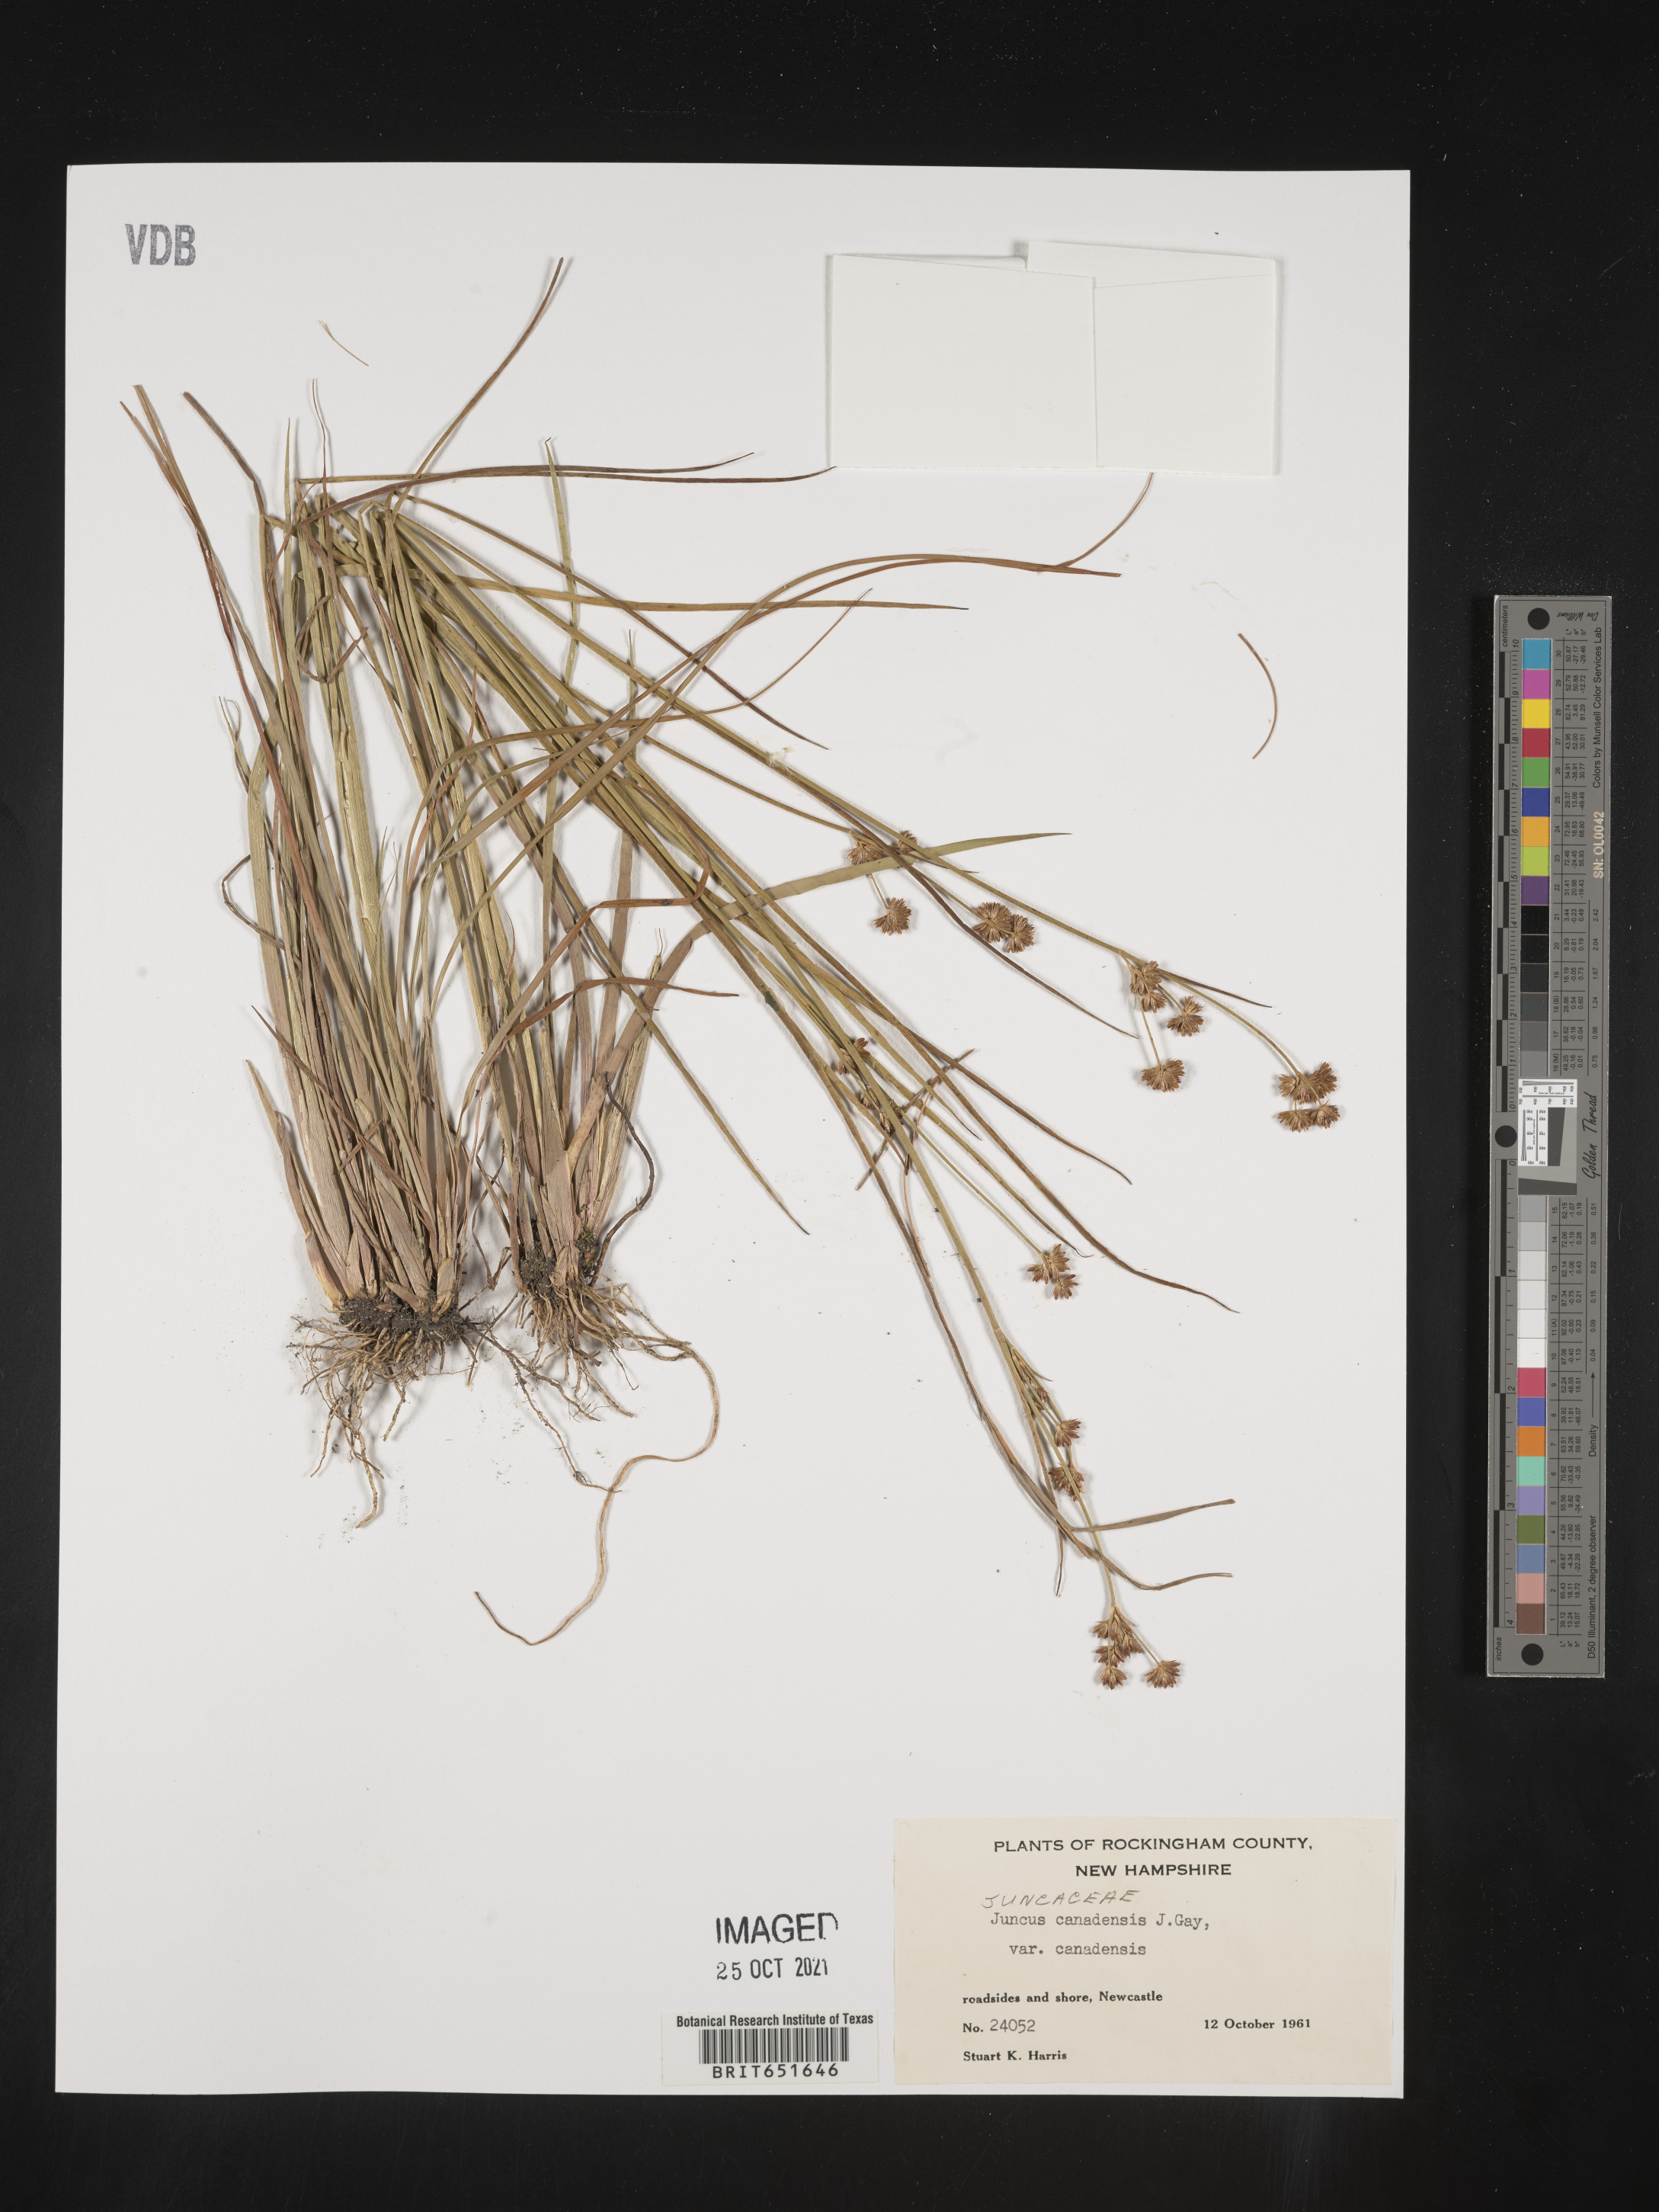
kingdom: Plantae
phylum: Tracheophyta
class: Liliopsida
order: Poales
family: Juncaceae
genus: Juncus
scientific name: Juncus canadensis
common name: Canada rush
